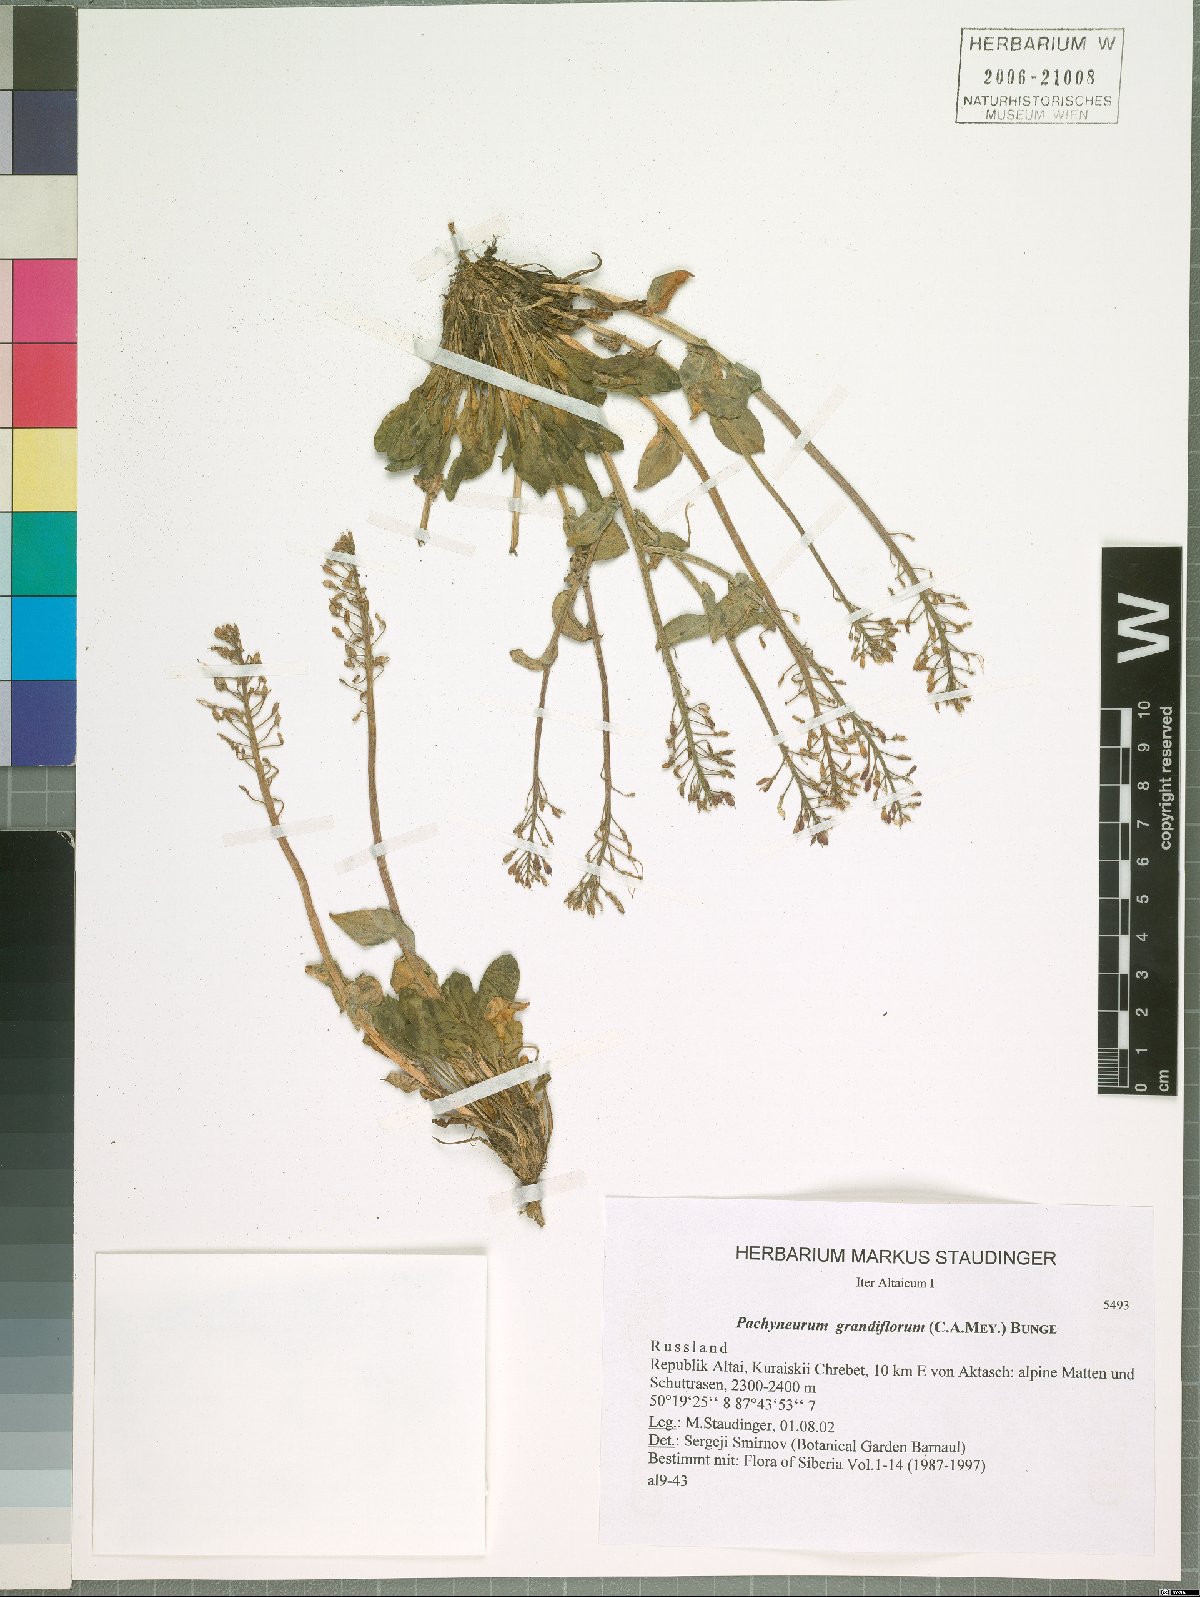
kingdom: Plantae
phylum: Tracheophyta
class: Magnoliopsida
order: Brassicales
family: Brassicaceae
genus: Noccaea
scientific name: Noccaea thlaspidioides
